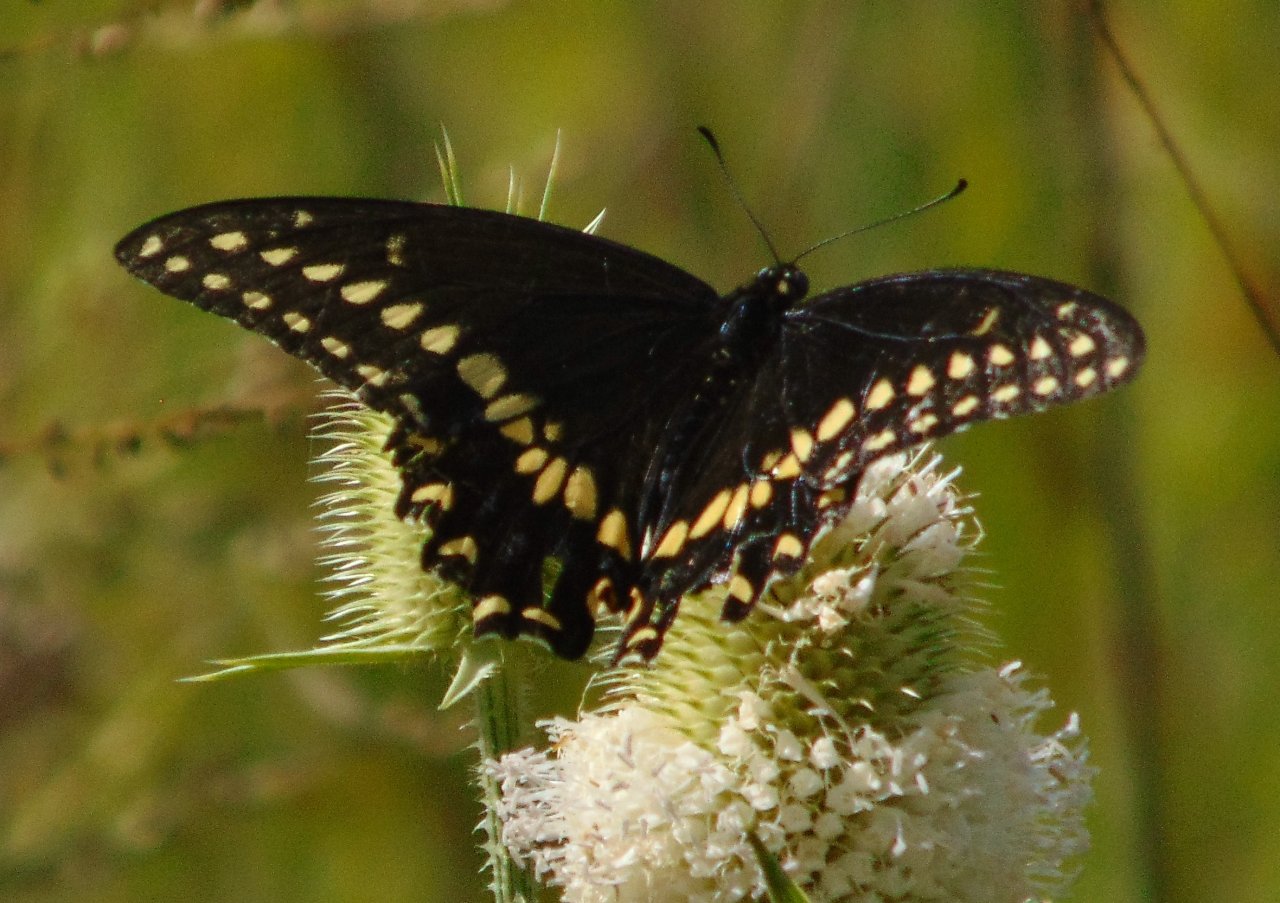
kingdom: Animalia
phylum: Arthropoda
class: Insecta
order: Lepidoptera
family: Papilionidae
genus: Papilio
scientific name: Papilio polyxenes
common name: Black Swallowtail
